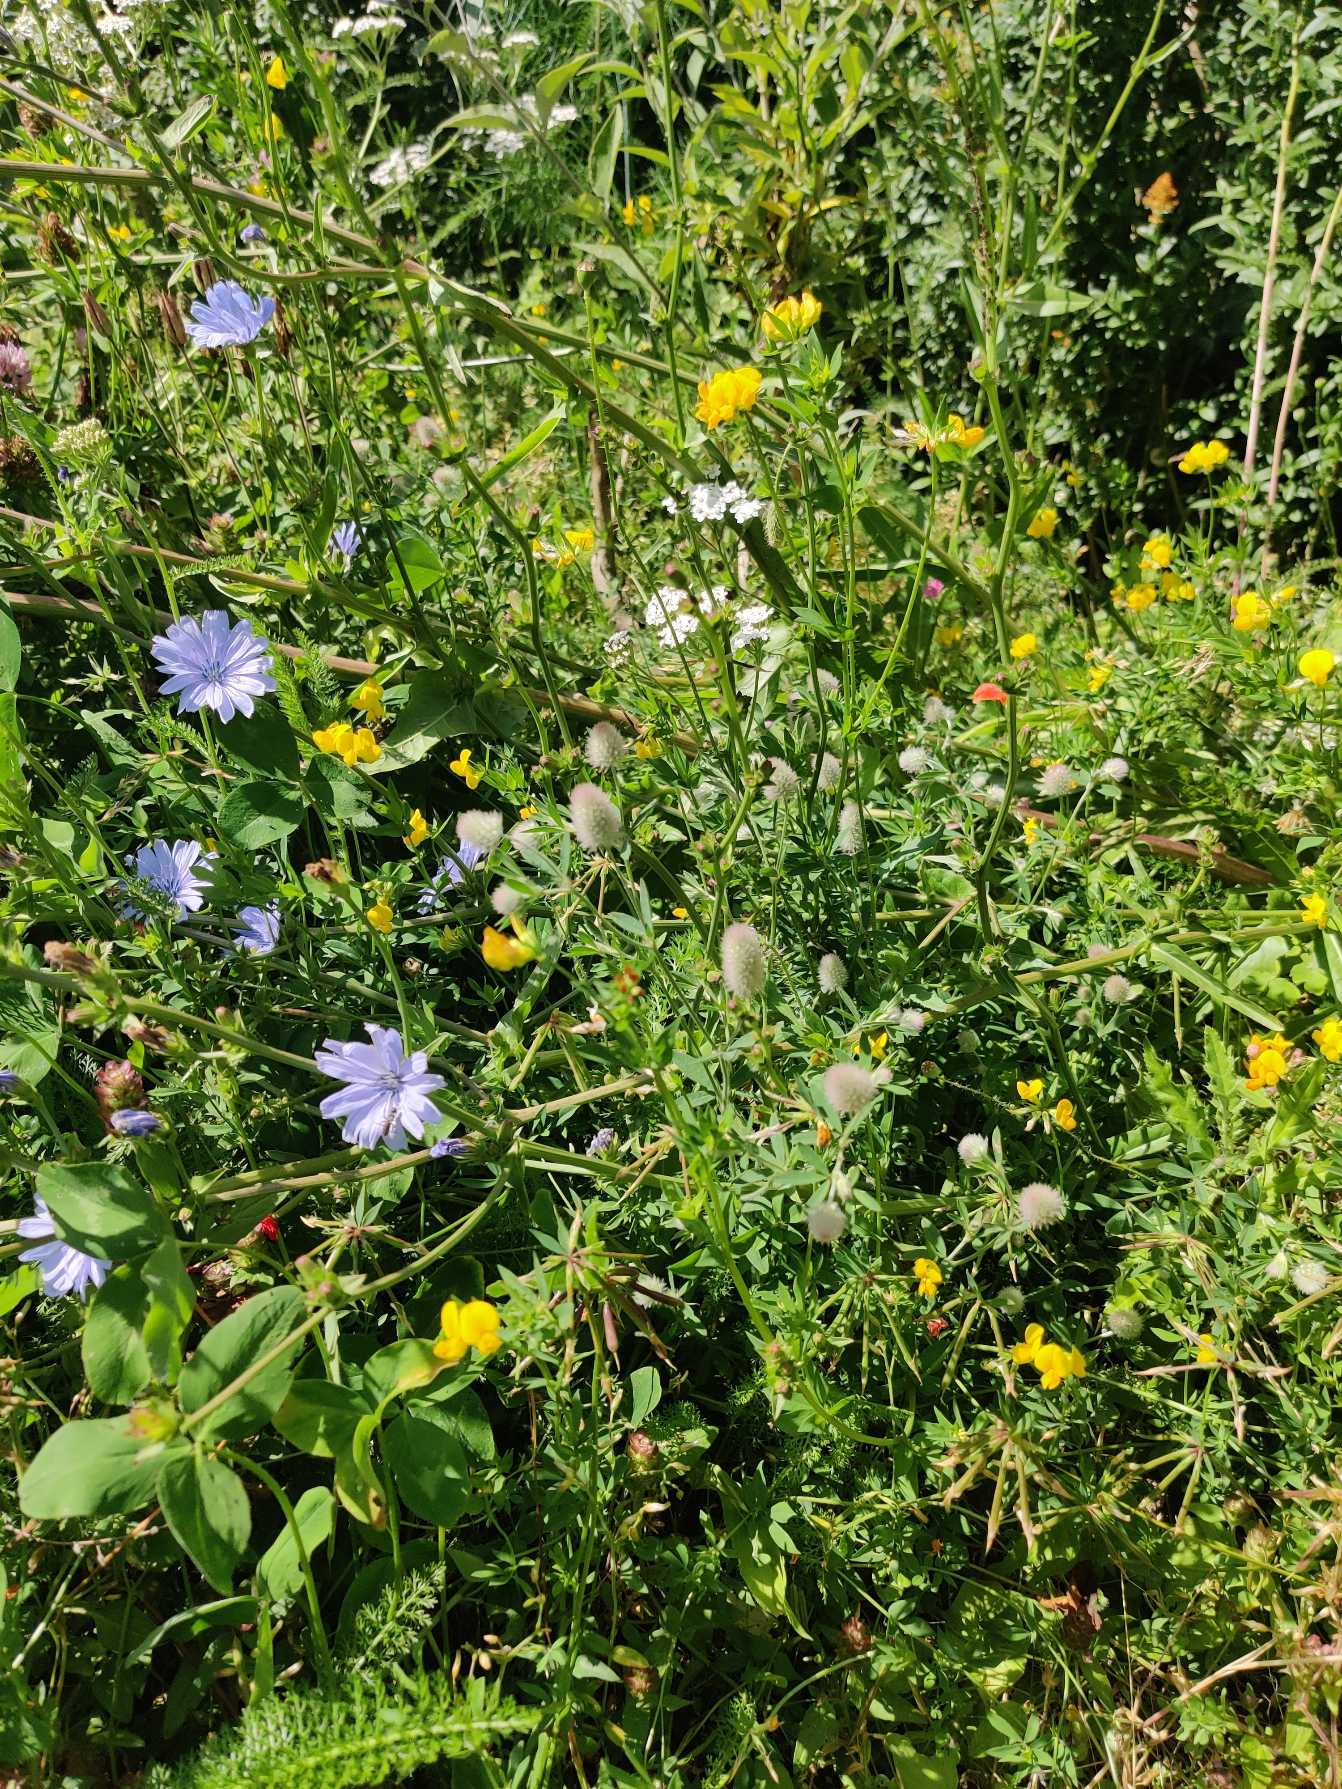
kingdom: Plantae
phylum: Tracheophyta
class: Magnoliopsida
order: Fabales
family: Fabaceae
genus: Trifolium
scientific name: Trifolium arvense
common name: Hare-kløver
